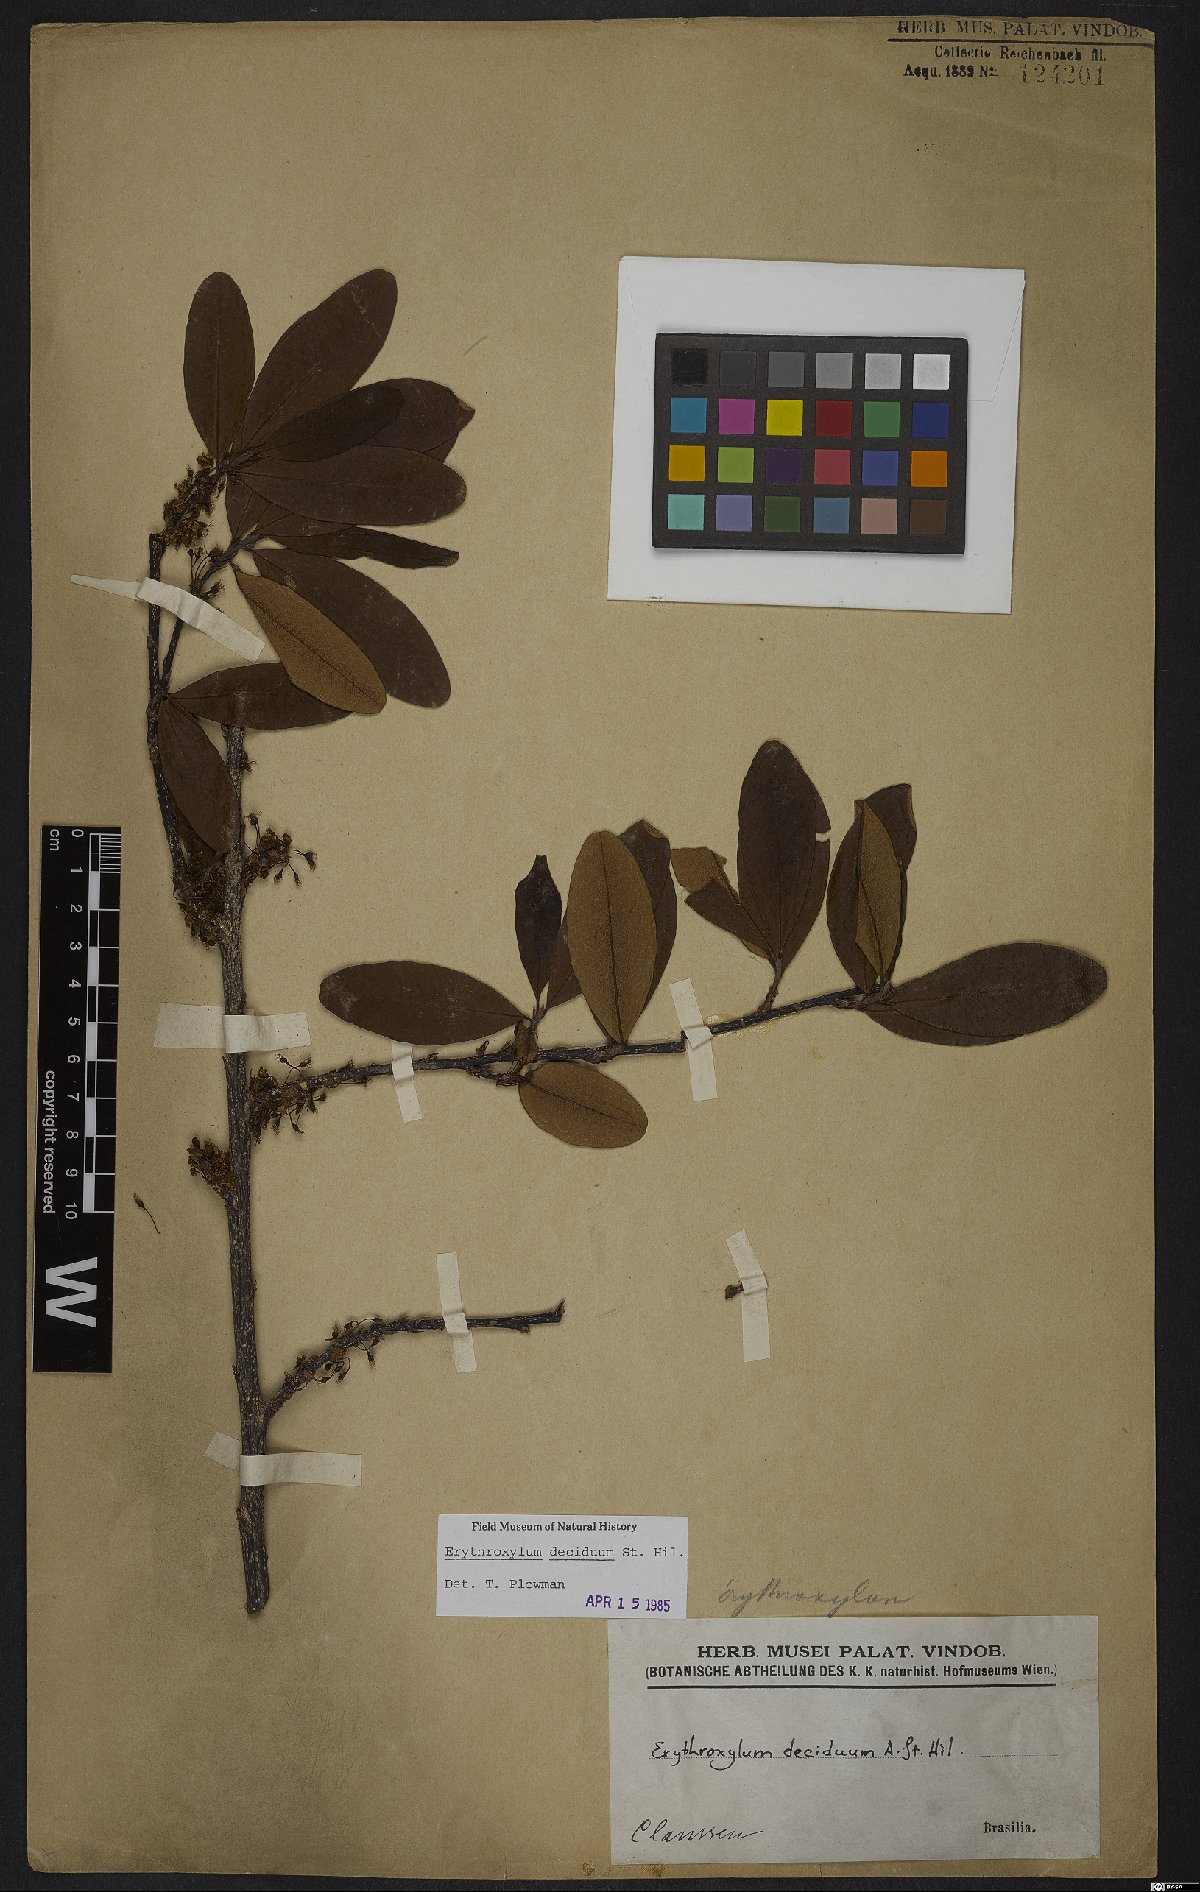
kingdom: Plantae
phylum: Tracheophyta
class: Magnoliopsida
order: Malpighiales
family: Erythroxylaceae
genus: Erythroxylum
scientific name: Erythroxylum deciduum
